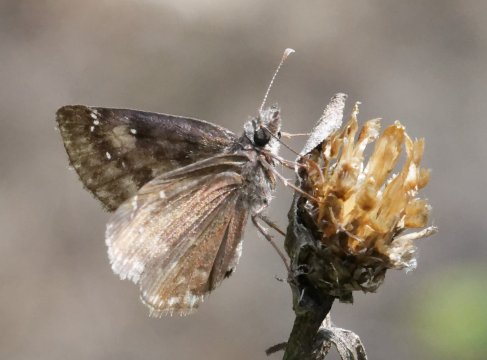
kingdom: Animalia
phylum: Arthropoda
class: Insecta
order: Lepidoptera
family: Hesperiidae
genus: Gesta
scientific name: Gesta
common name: Wild Indigo Duskywing
